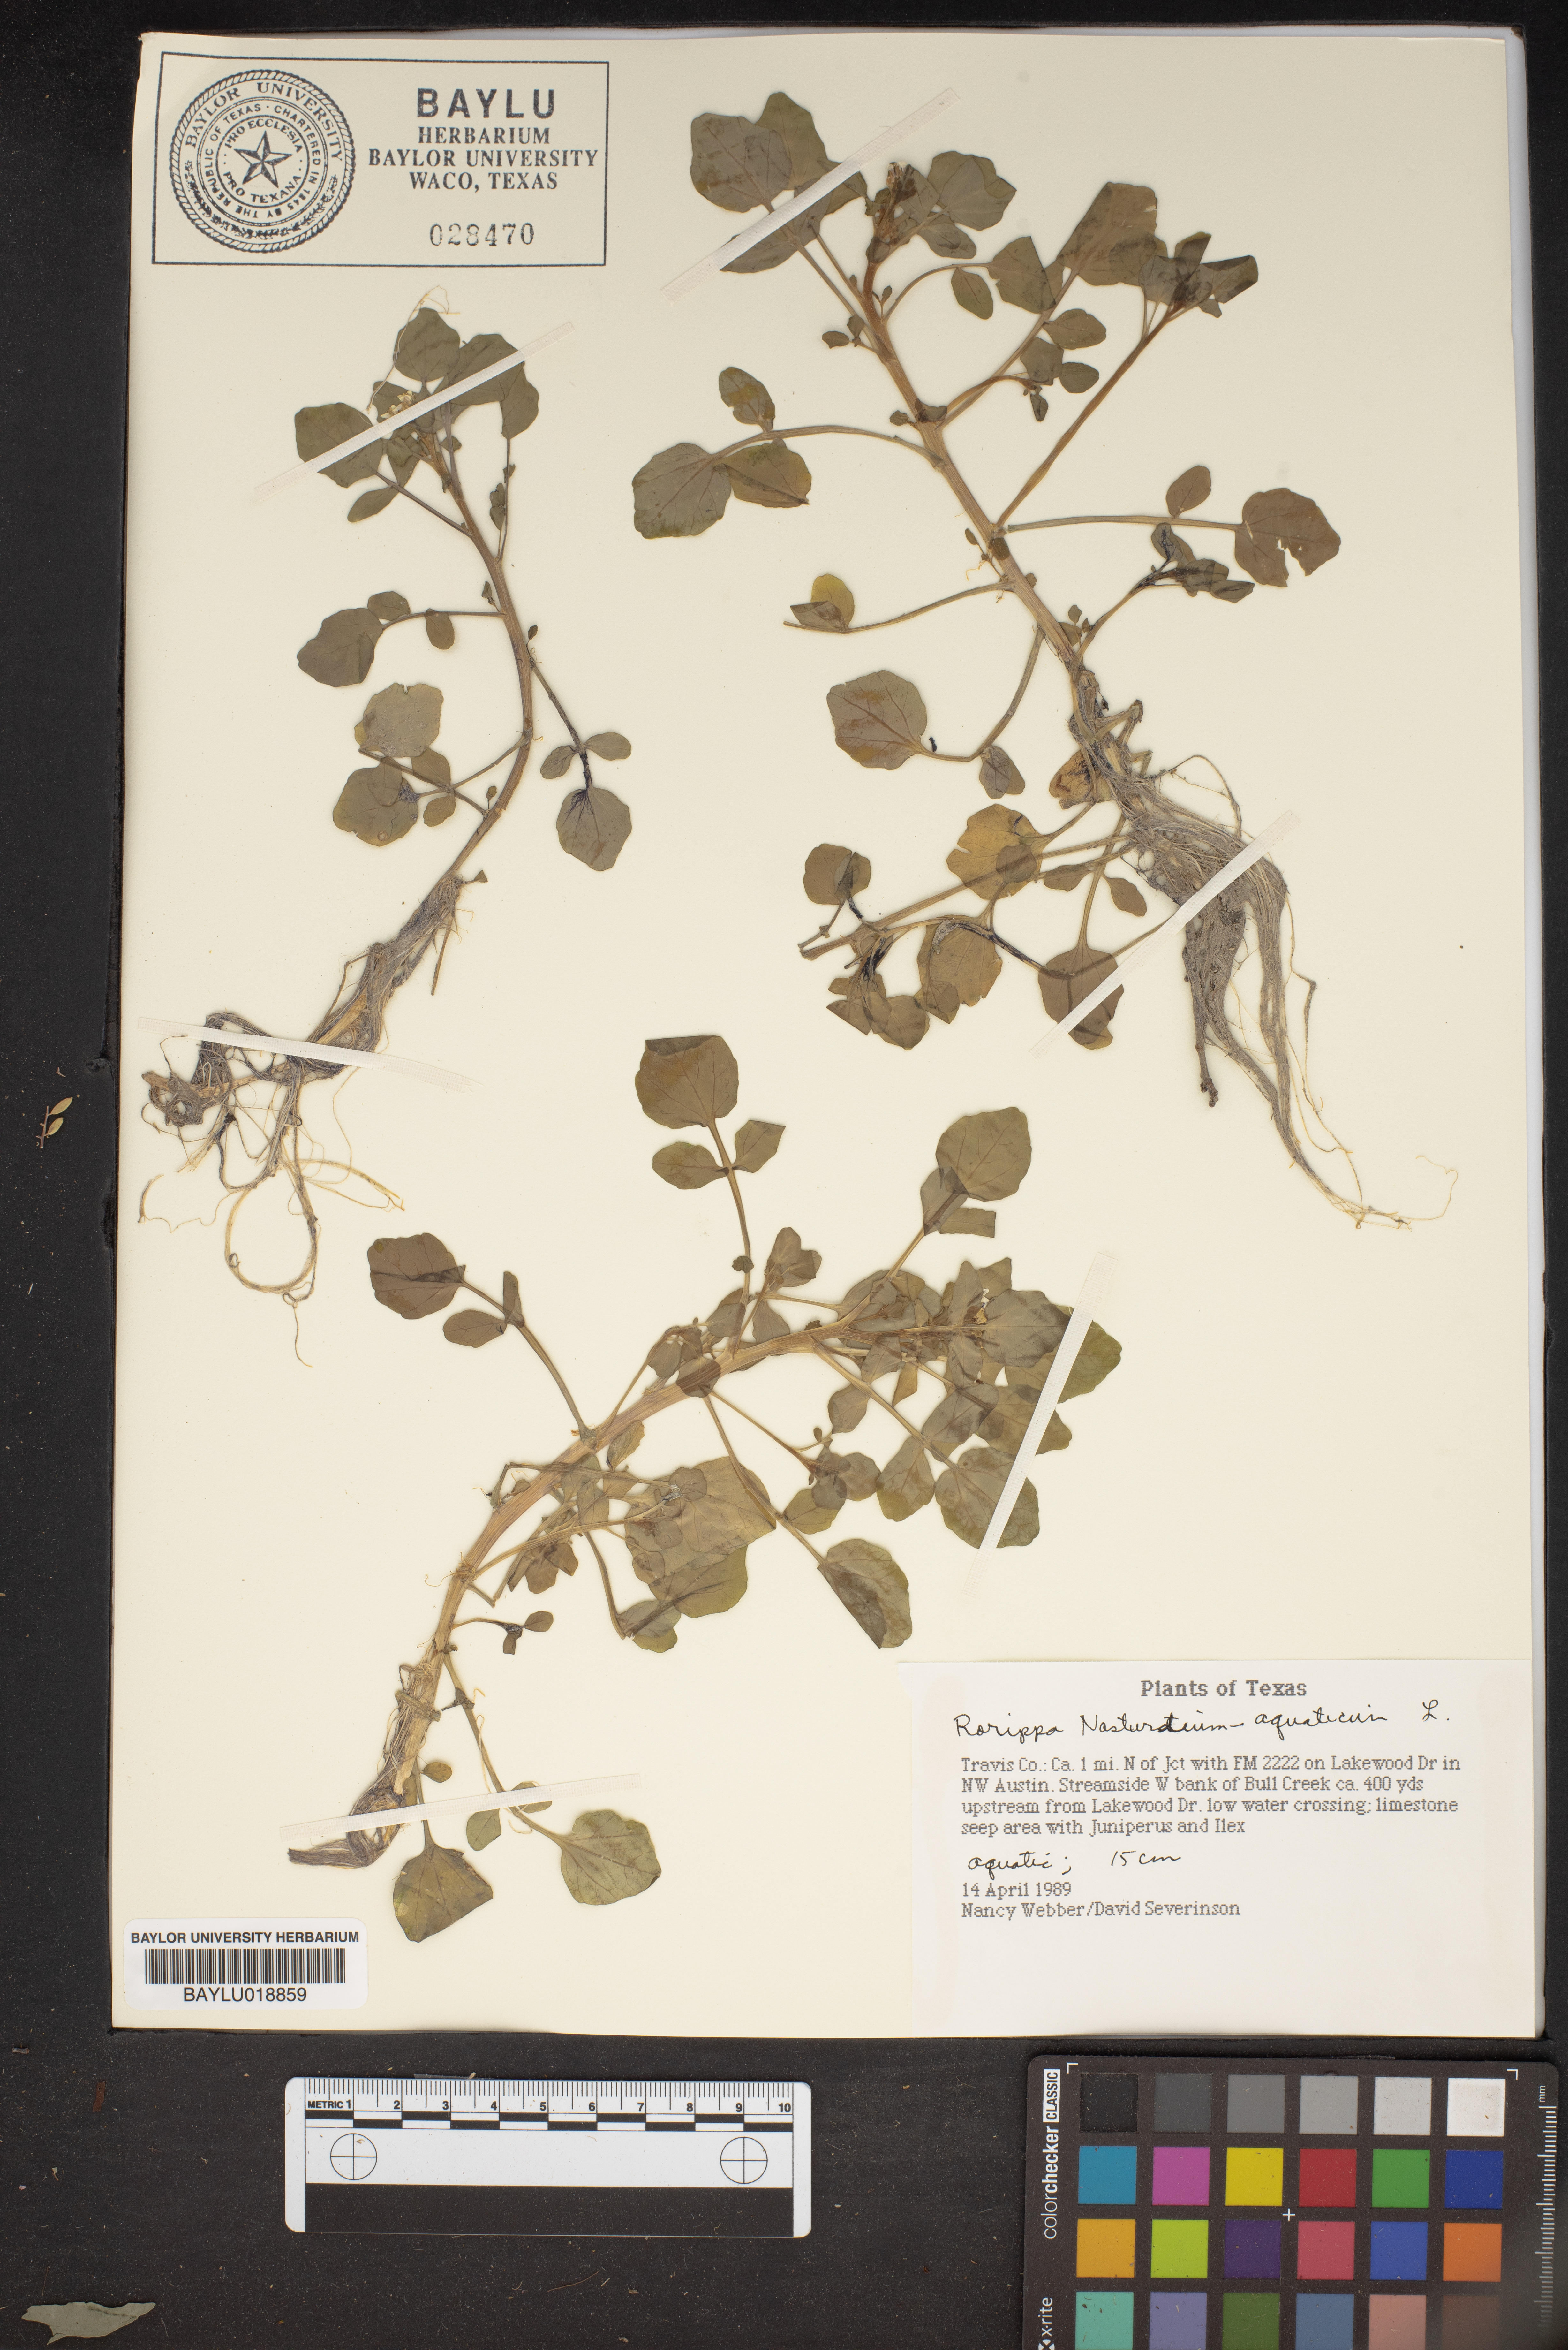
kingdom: Plantae
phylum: Tracheophyta
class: Magnoliopsida
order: Brassicales
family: Brassicaceae
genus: Nasturtium
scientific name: Nasturtium officinale
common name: Watercress
